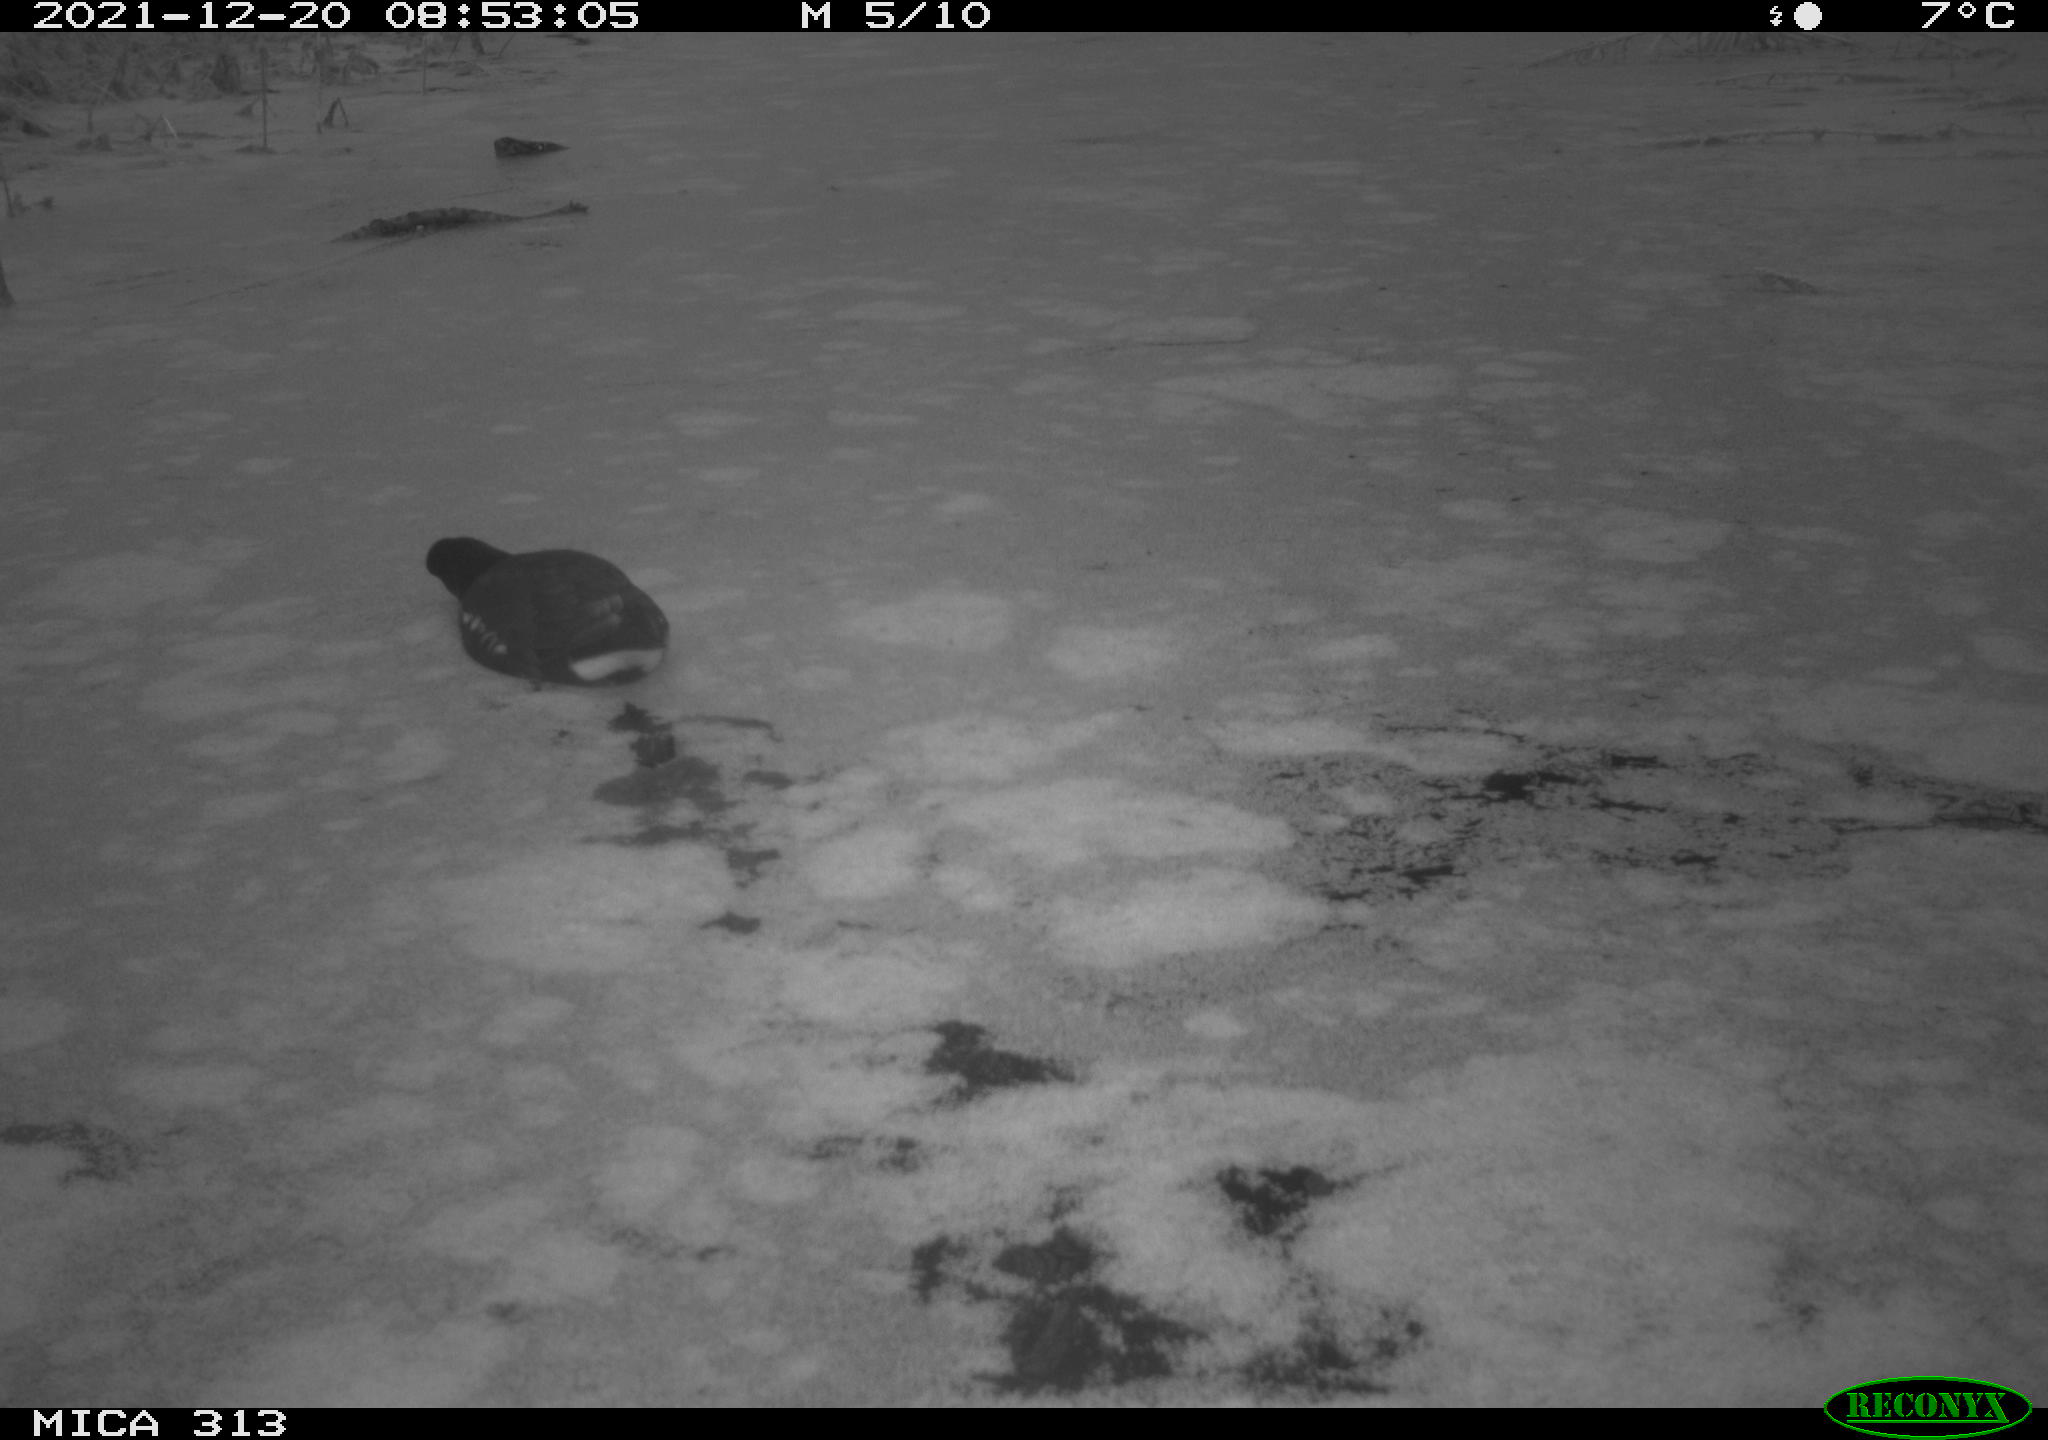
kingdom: Animalia
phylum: Chordata
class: Aves
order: Gruiformes
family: Rallidae
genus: Gallinula
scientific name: Gallinula chloropus
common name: Common moorhen
